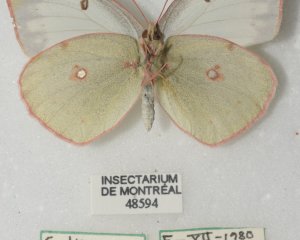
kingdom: Animalia
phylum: Arthropoda
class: Insecta
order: Lepidoptera
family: Pieridae
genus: Colias
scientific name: Colias philodice
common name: Clouded Sulphur
